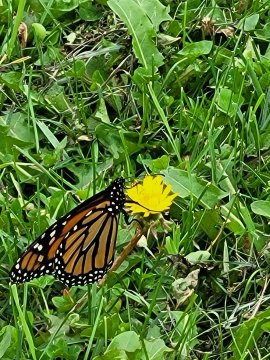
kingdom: Animalia
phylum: Arthropoda
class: Insecta
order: Lepidoptera
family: Nymphalidae
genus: Danaus
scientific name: Danaus plexippus
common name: Monarch
